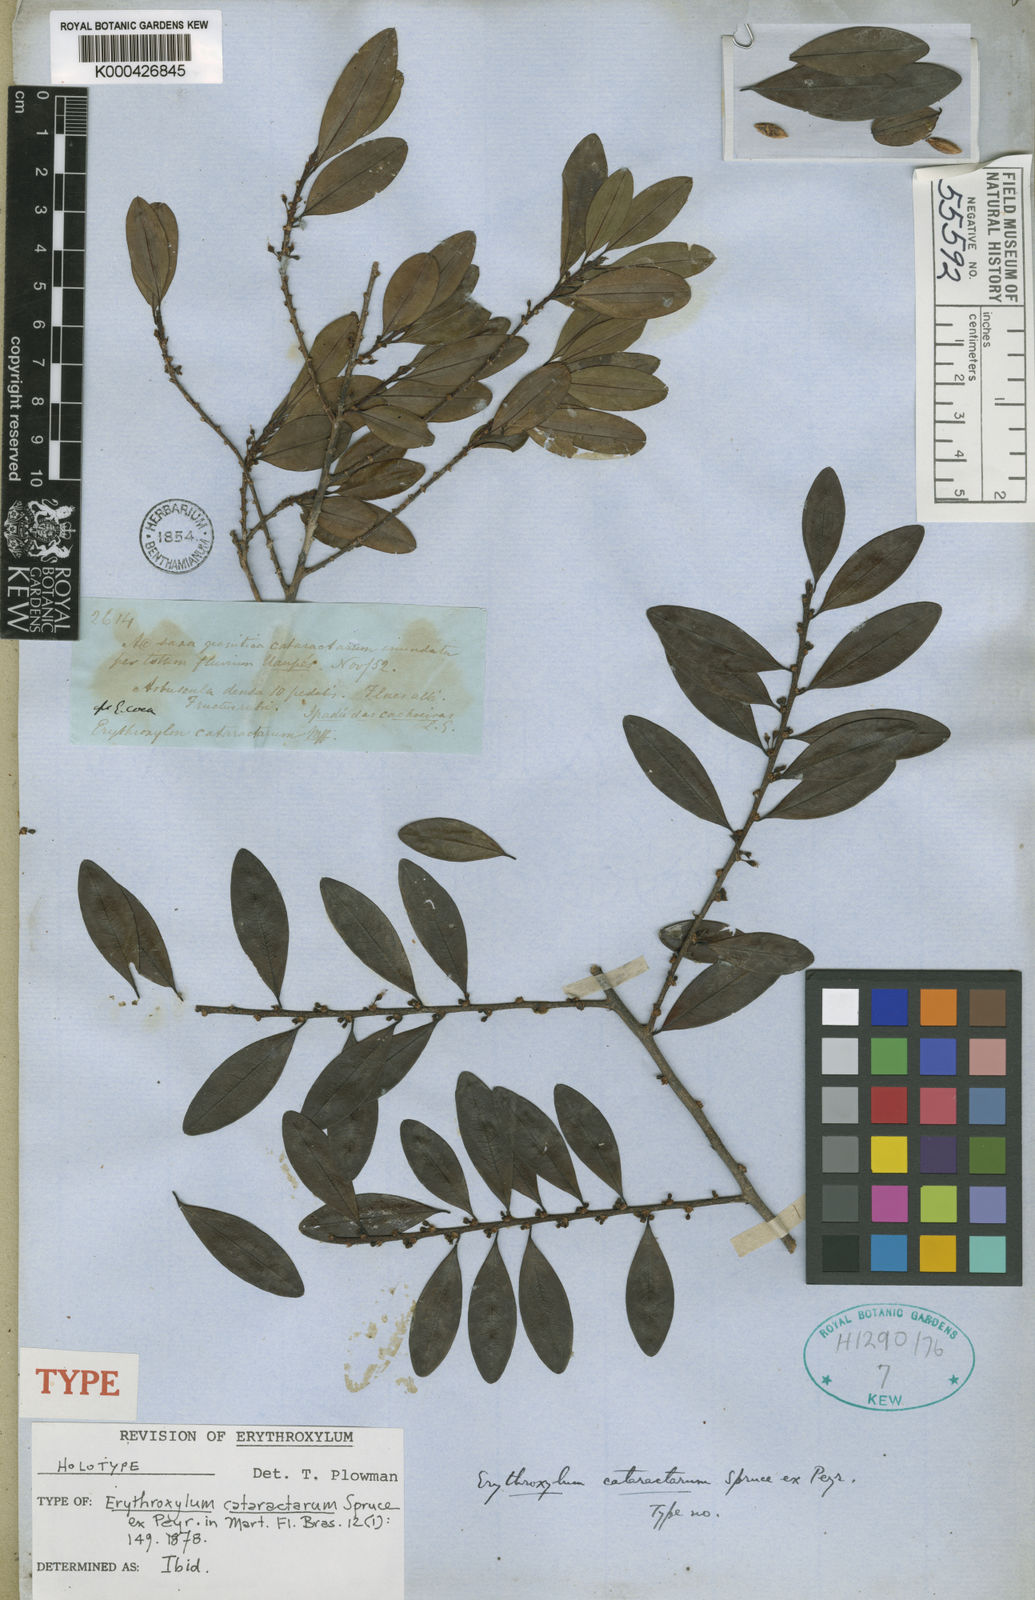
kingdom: Plantae
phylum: Tracheophyta
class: Magnoliopsida
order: Malpighiales
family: Erythroxylaceae
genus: Erythroxylum
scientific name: Erythroxylum cataractarum
